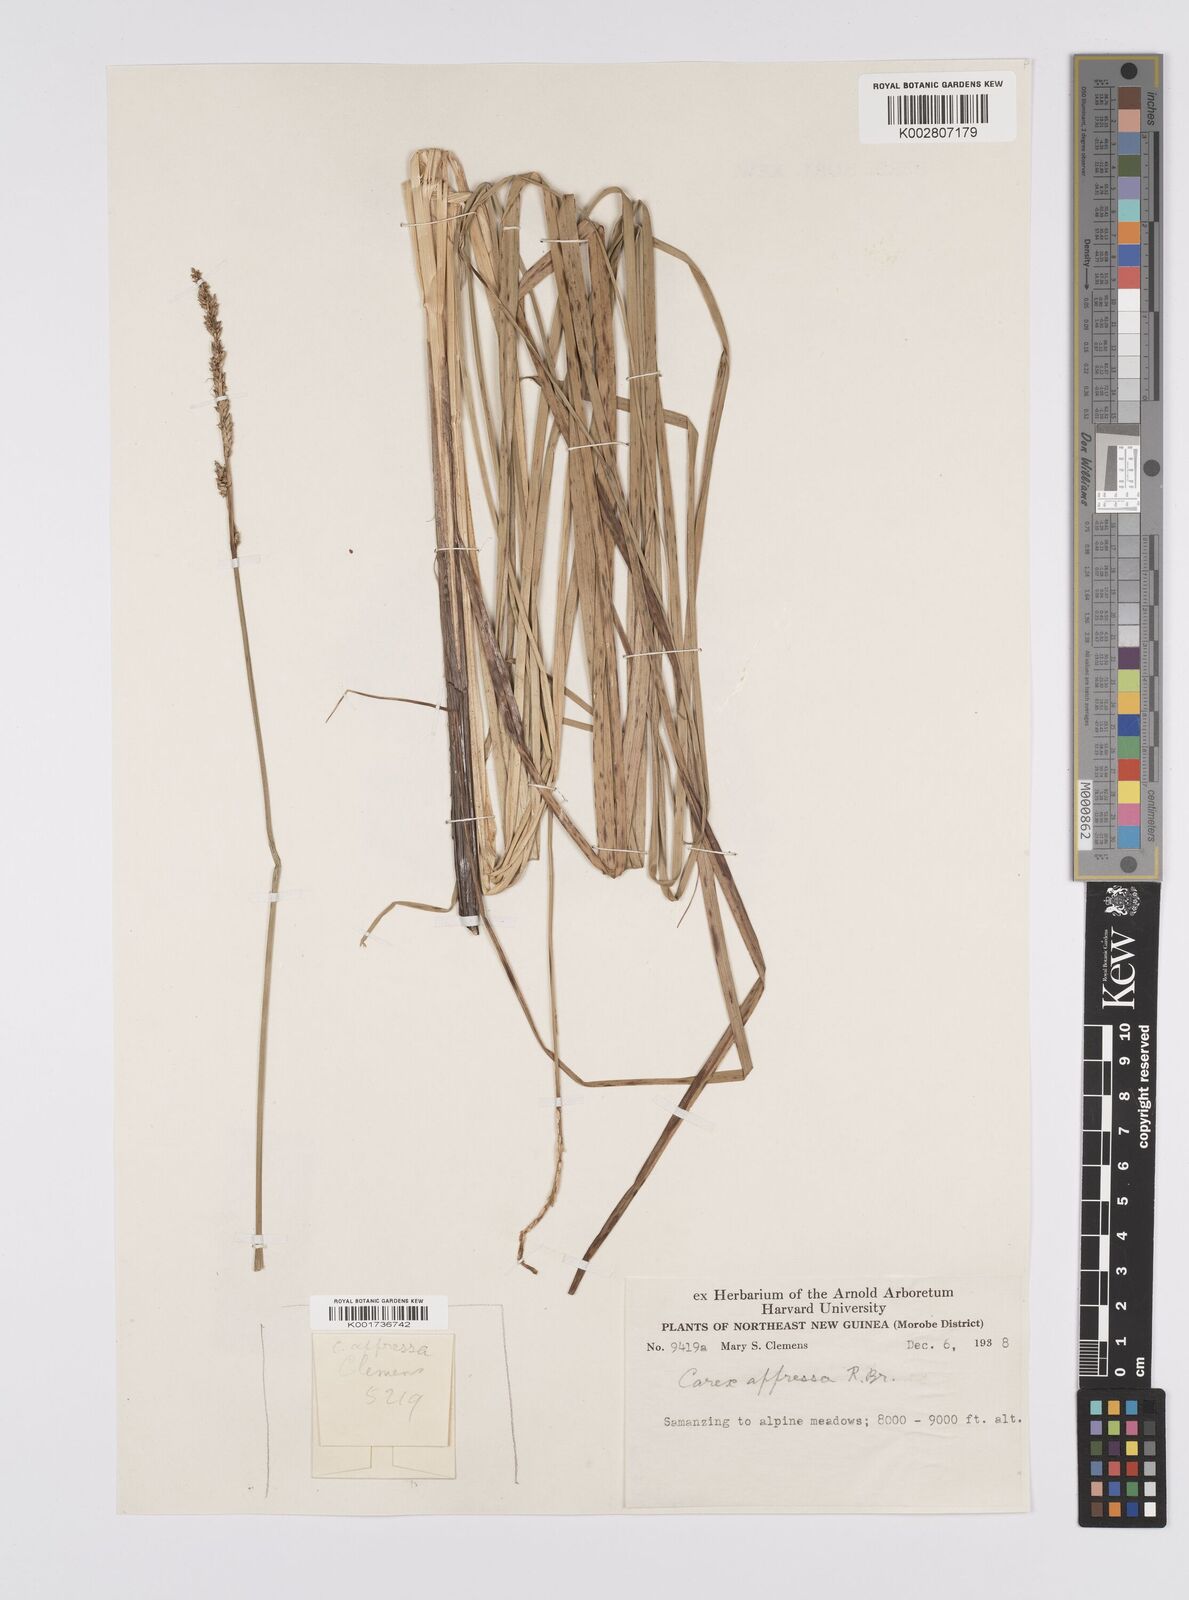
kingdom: Plantae
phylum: Tracheophyta
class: Liliopsida
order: Poales
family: Cyperaceae
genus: Carex
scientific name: Carex appressa
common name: Tussock sedge
